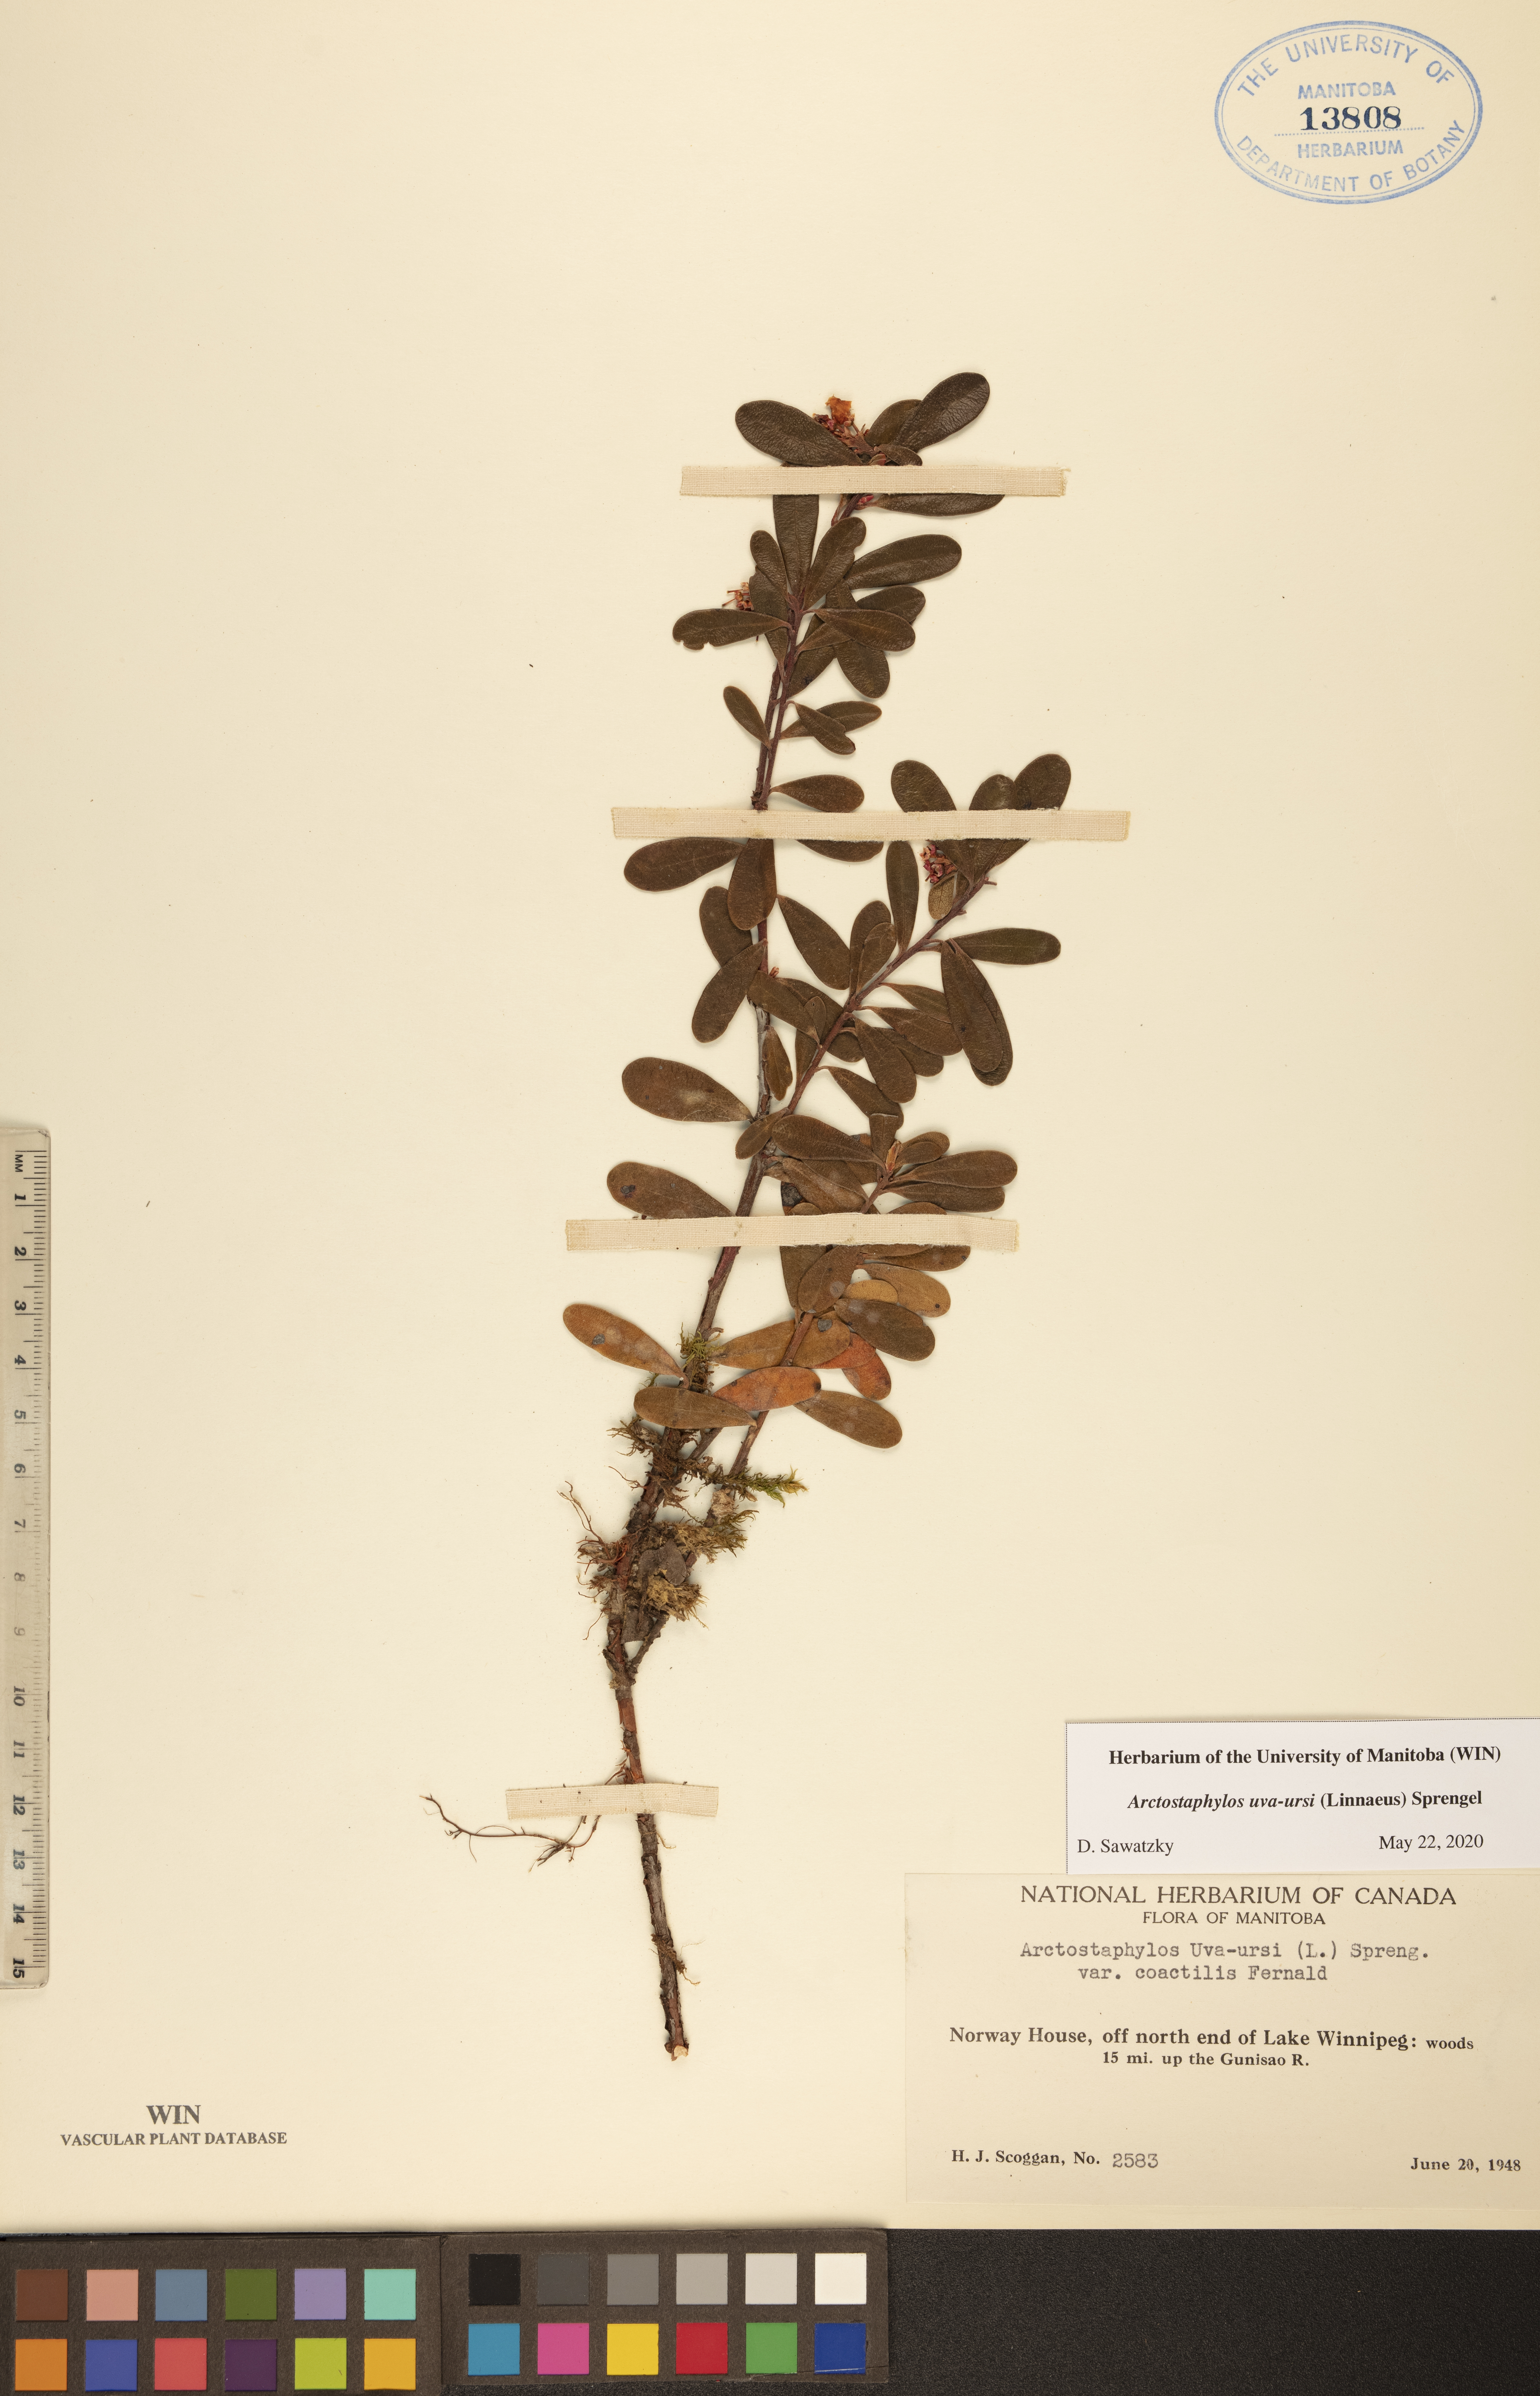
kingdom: Plantae
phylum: Tracheophyta
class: Magnoliopsida
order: Ericales
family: Ericaceae
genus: Arctostaphylos
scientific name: Arctostaphylos uva-ursi
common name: Bearberry
